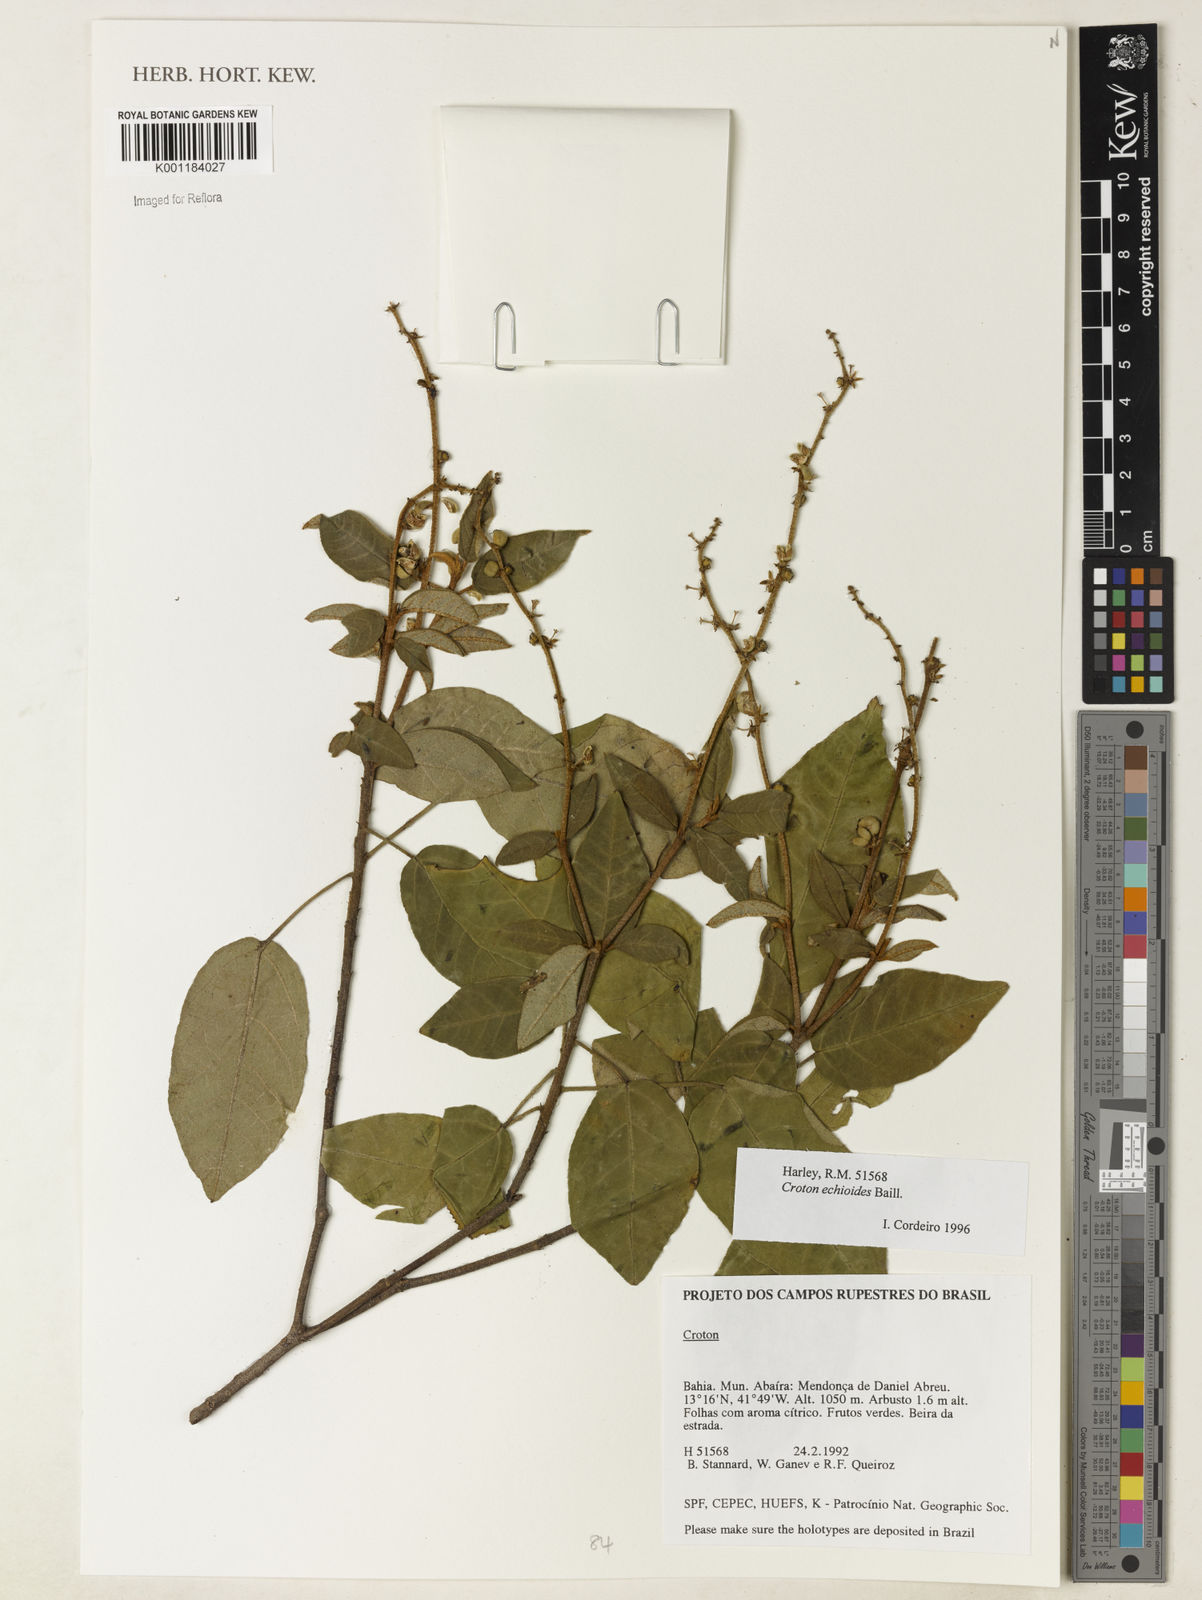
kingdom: Plantae
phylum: Tracheophyta
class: Liliopsida
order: Poales
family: Cyperaceae
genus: Bulbostylis
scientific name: Bulbostylis capillaris
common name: Densetuft hairsedge
